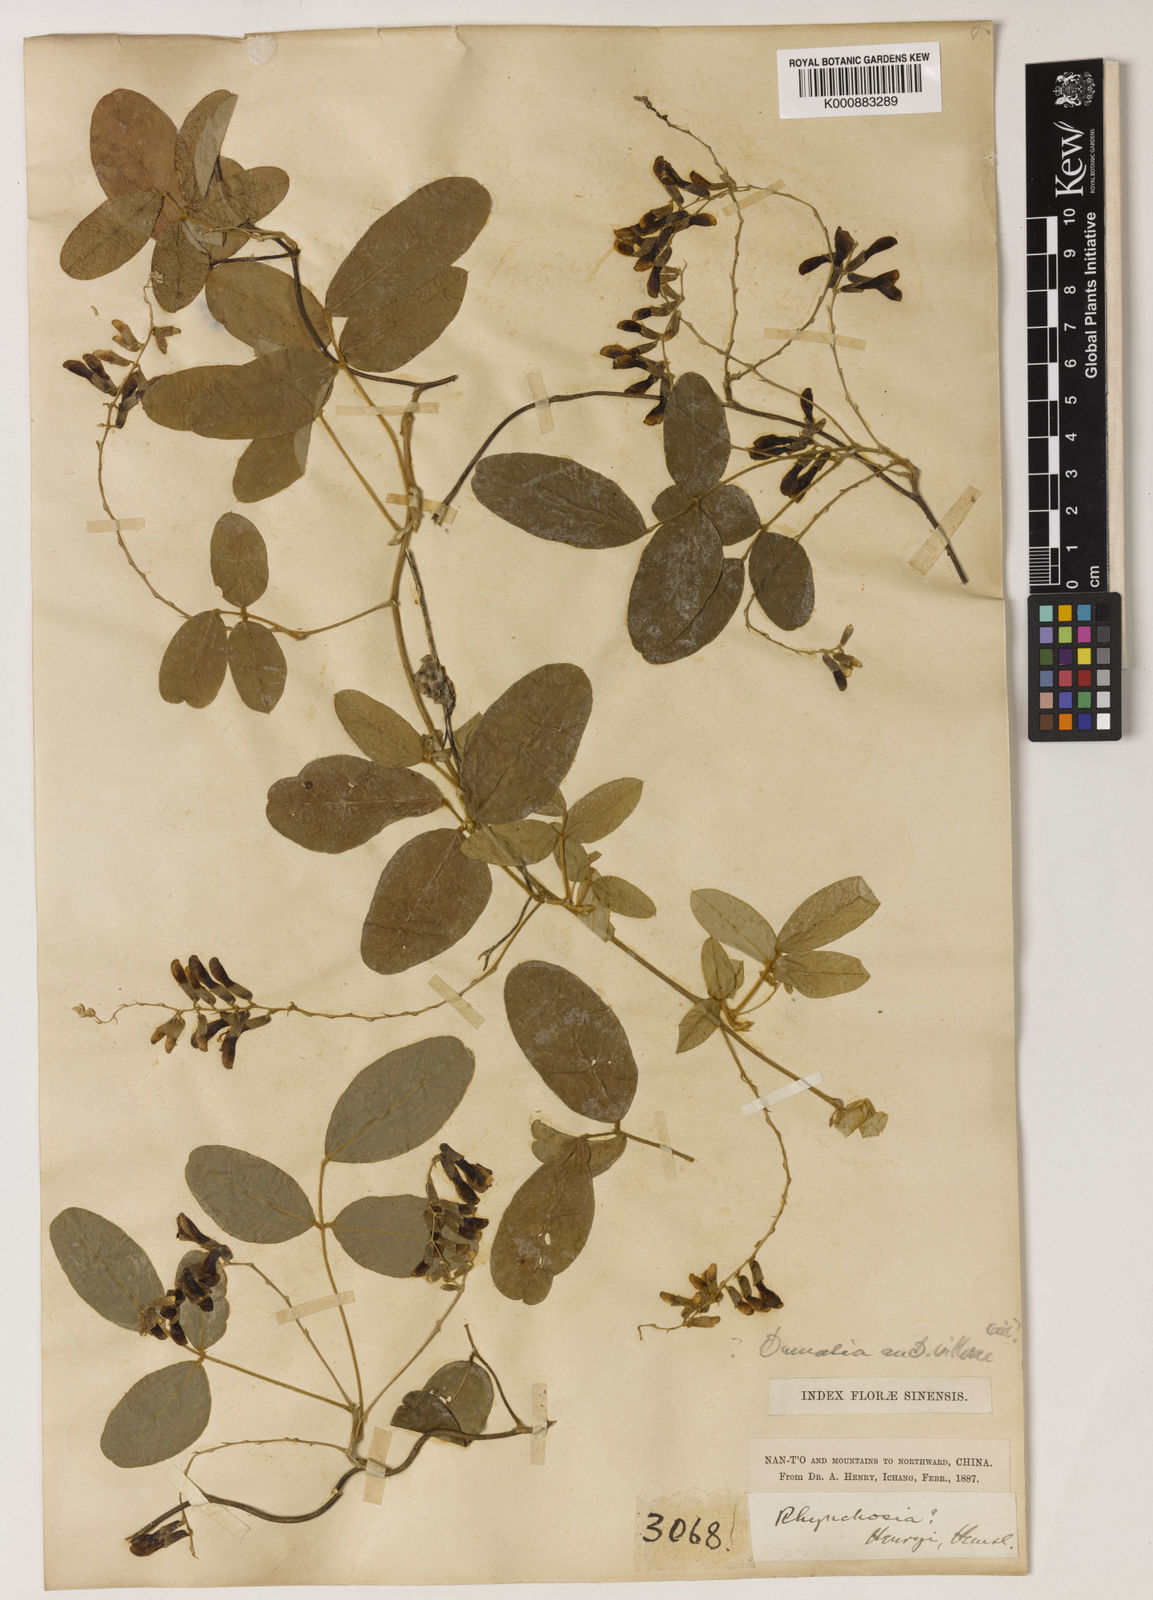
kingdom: Plantae
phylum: Tracheophyta
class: Magnoliopsida
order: Fabales
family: Fabaceae
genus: Dumasia
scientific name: Dumasia villosa
